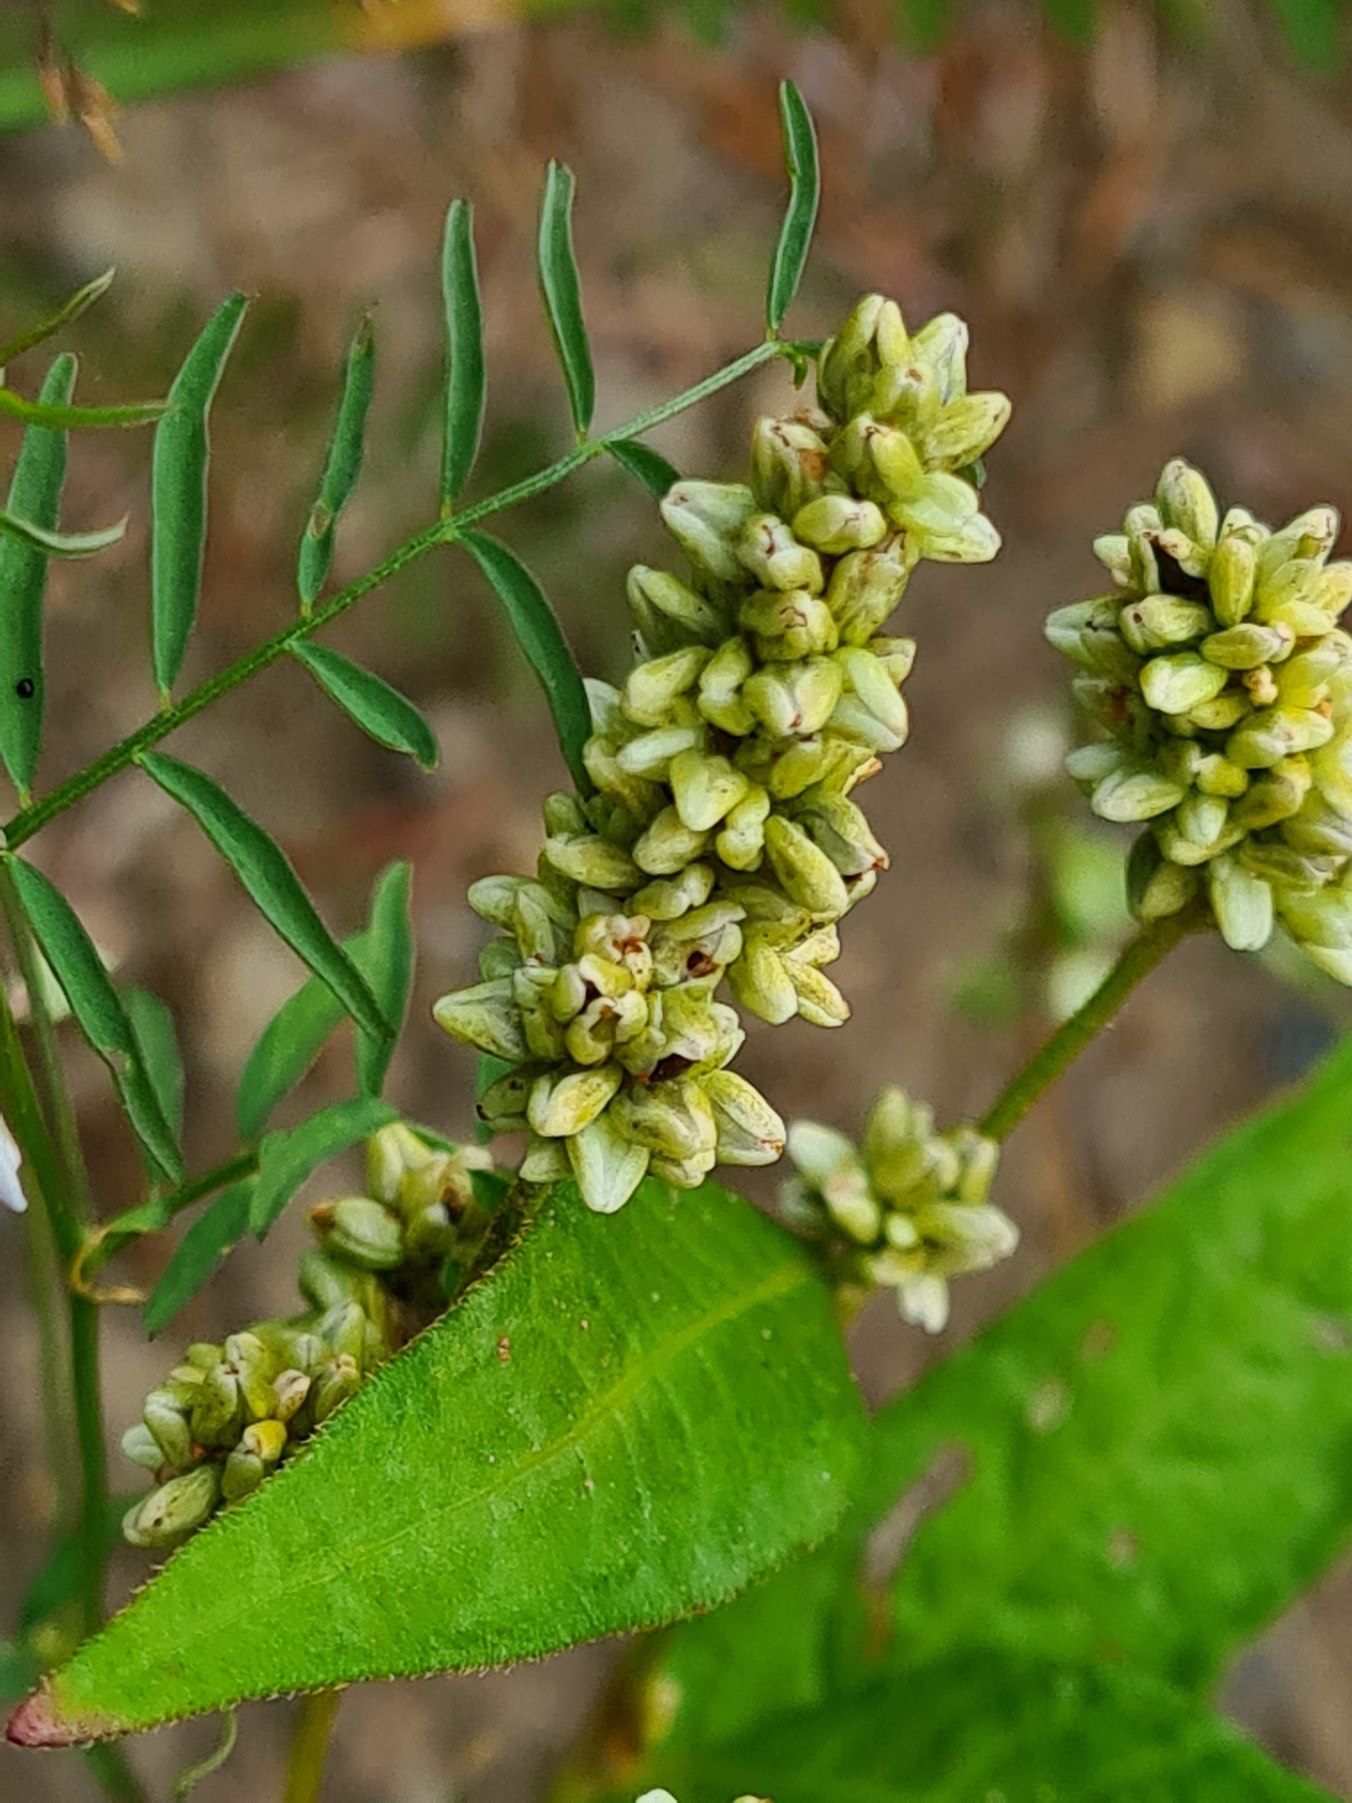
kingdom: Plantae
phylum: Tracheophyta
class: Magnoliopsida
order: Caryophyllales
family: Polygonaceae
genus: Persicaria
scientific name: Persicaria lapathifolia
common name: Bleg pileurt
